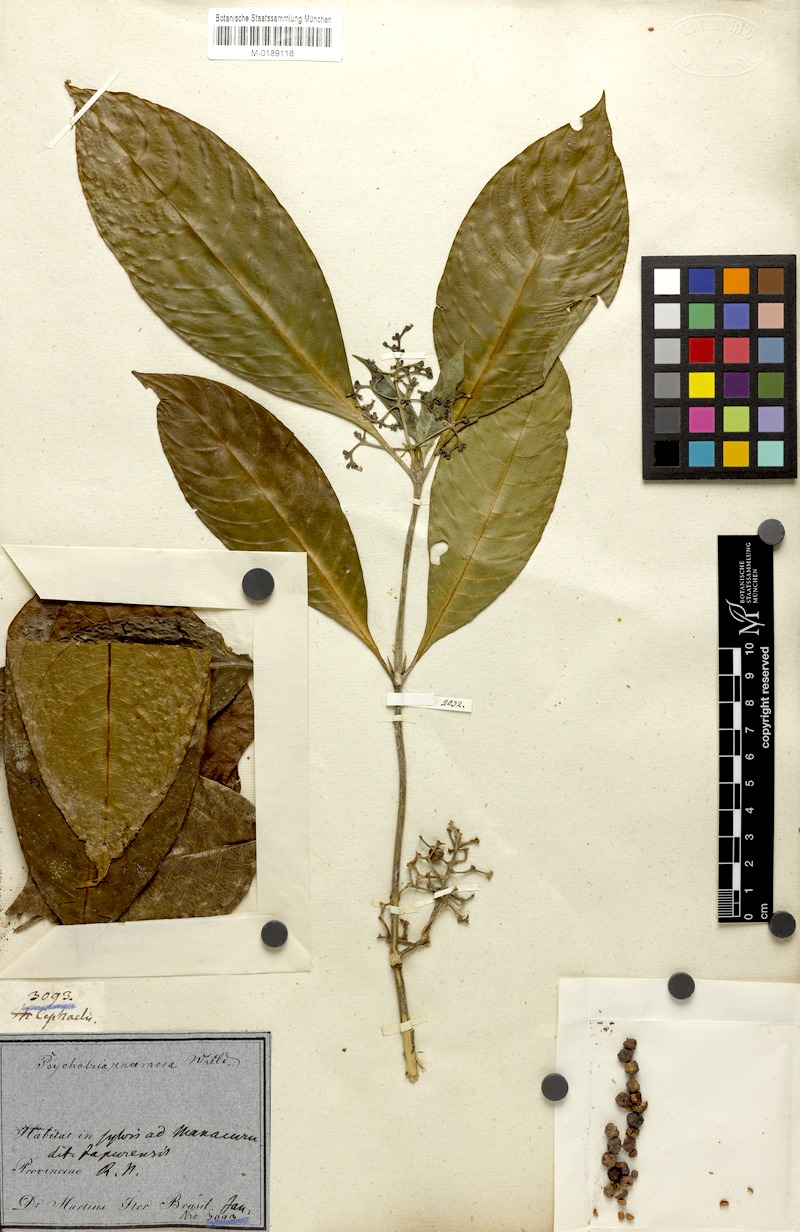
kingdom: Plantae
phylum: Tracheophyta
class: Magnoliopsida
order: Gentianales
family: Rubiaceae
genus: Palicourea
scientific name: Palicourea racemosa
